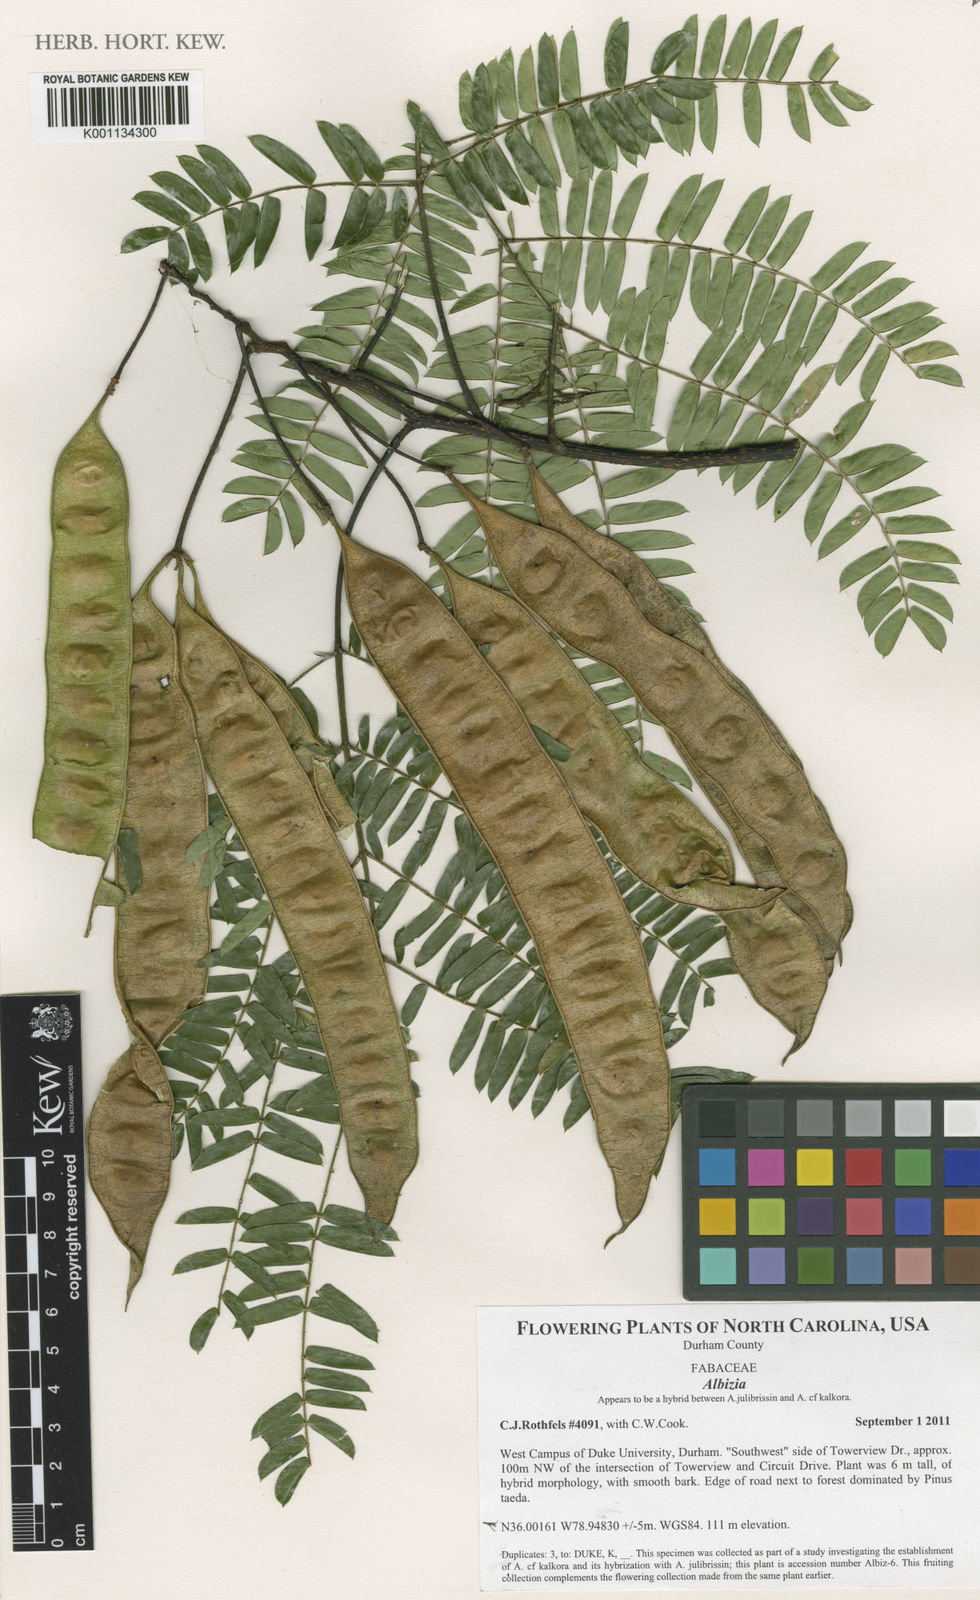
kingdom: Plantae
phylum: Tracheophyta
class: Magnoliopsida
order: Fabales
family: Fabaceae
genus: Albizia
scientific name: Albizia
